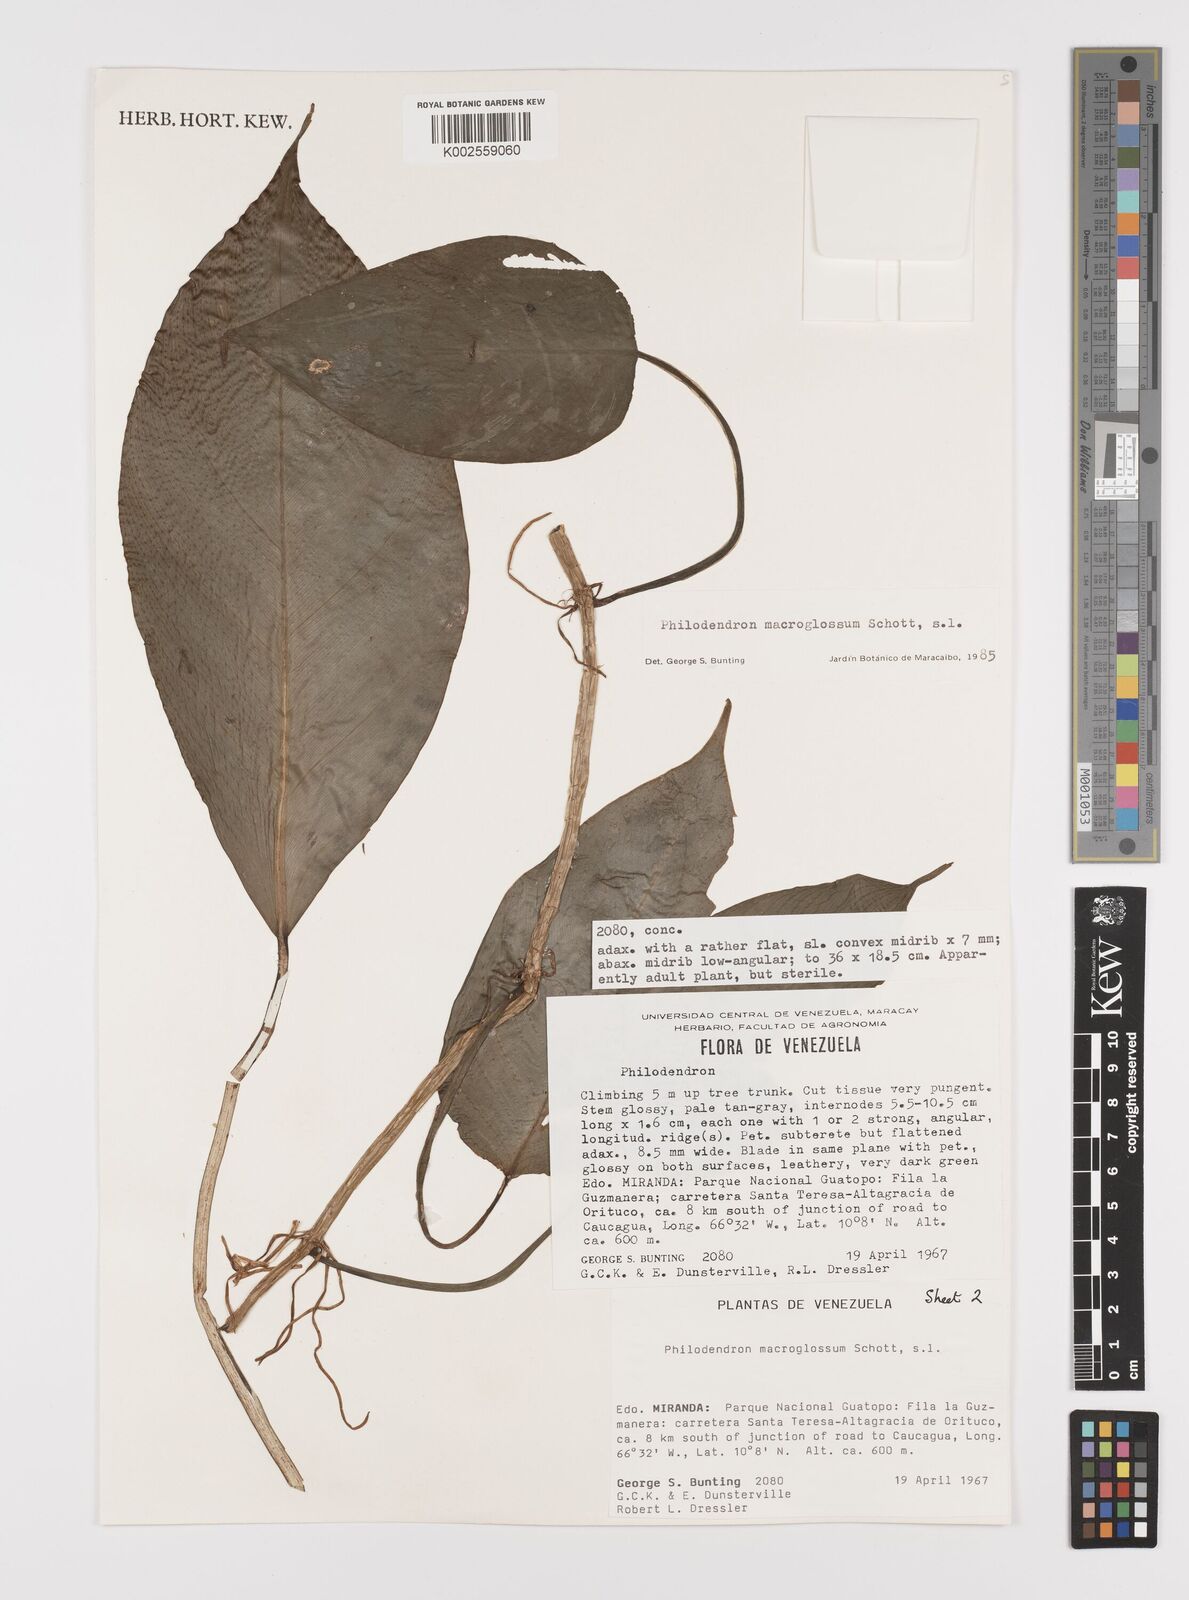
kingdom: Plantae
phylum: Tracheophyta
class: Liliopsida
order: Alismatales
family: Araceae
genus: Philodendron
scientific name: Philodendron macroglossum
